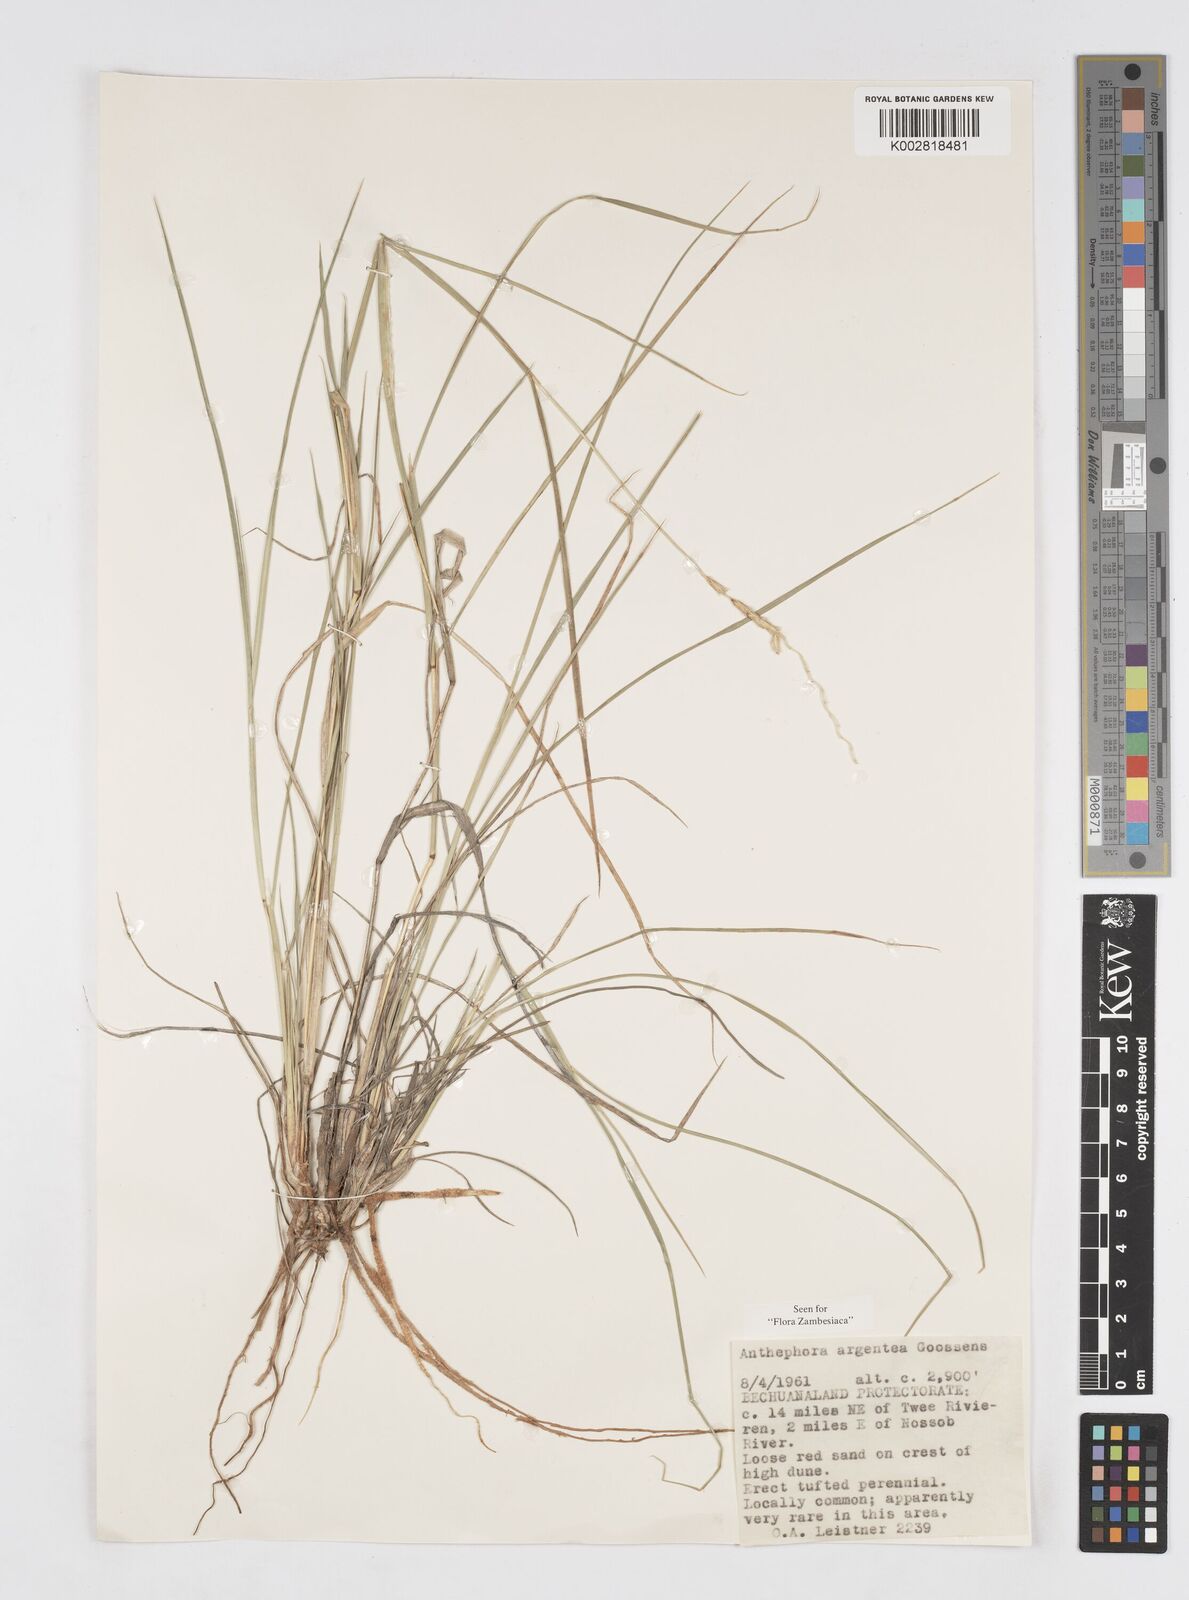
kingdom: Plantae
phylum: Tracheophyta
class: Liliopsida
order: Poales
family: Poaceae
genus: Anthephora
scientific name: Anthephora argentea
